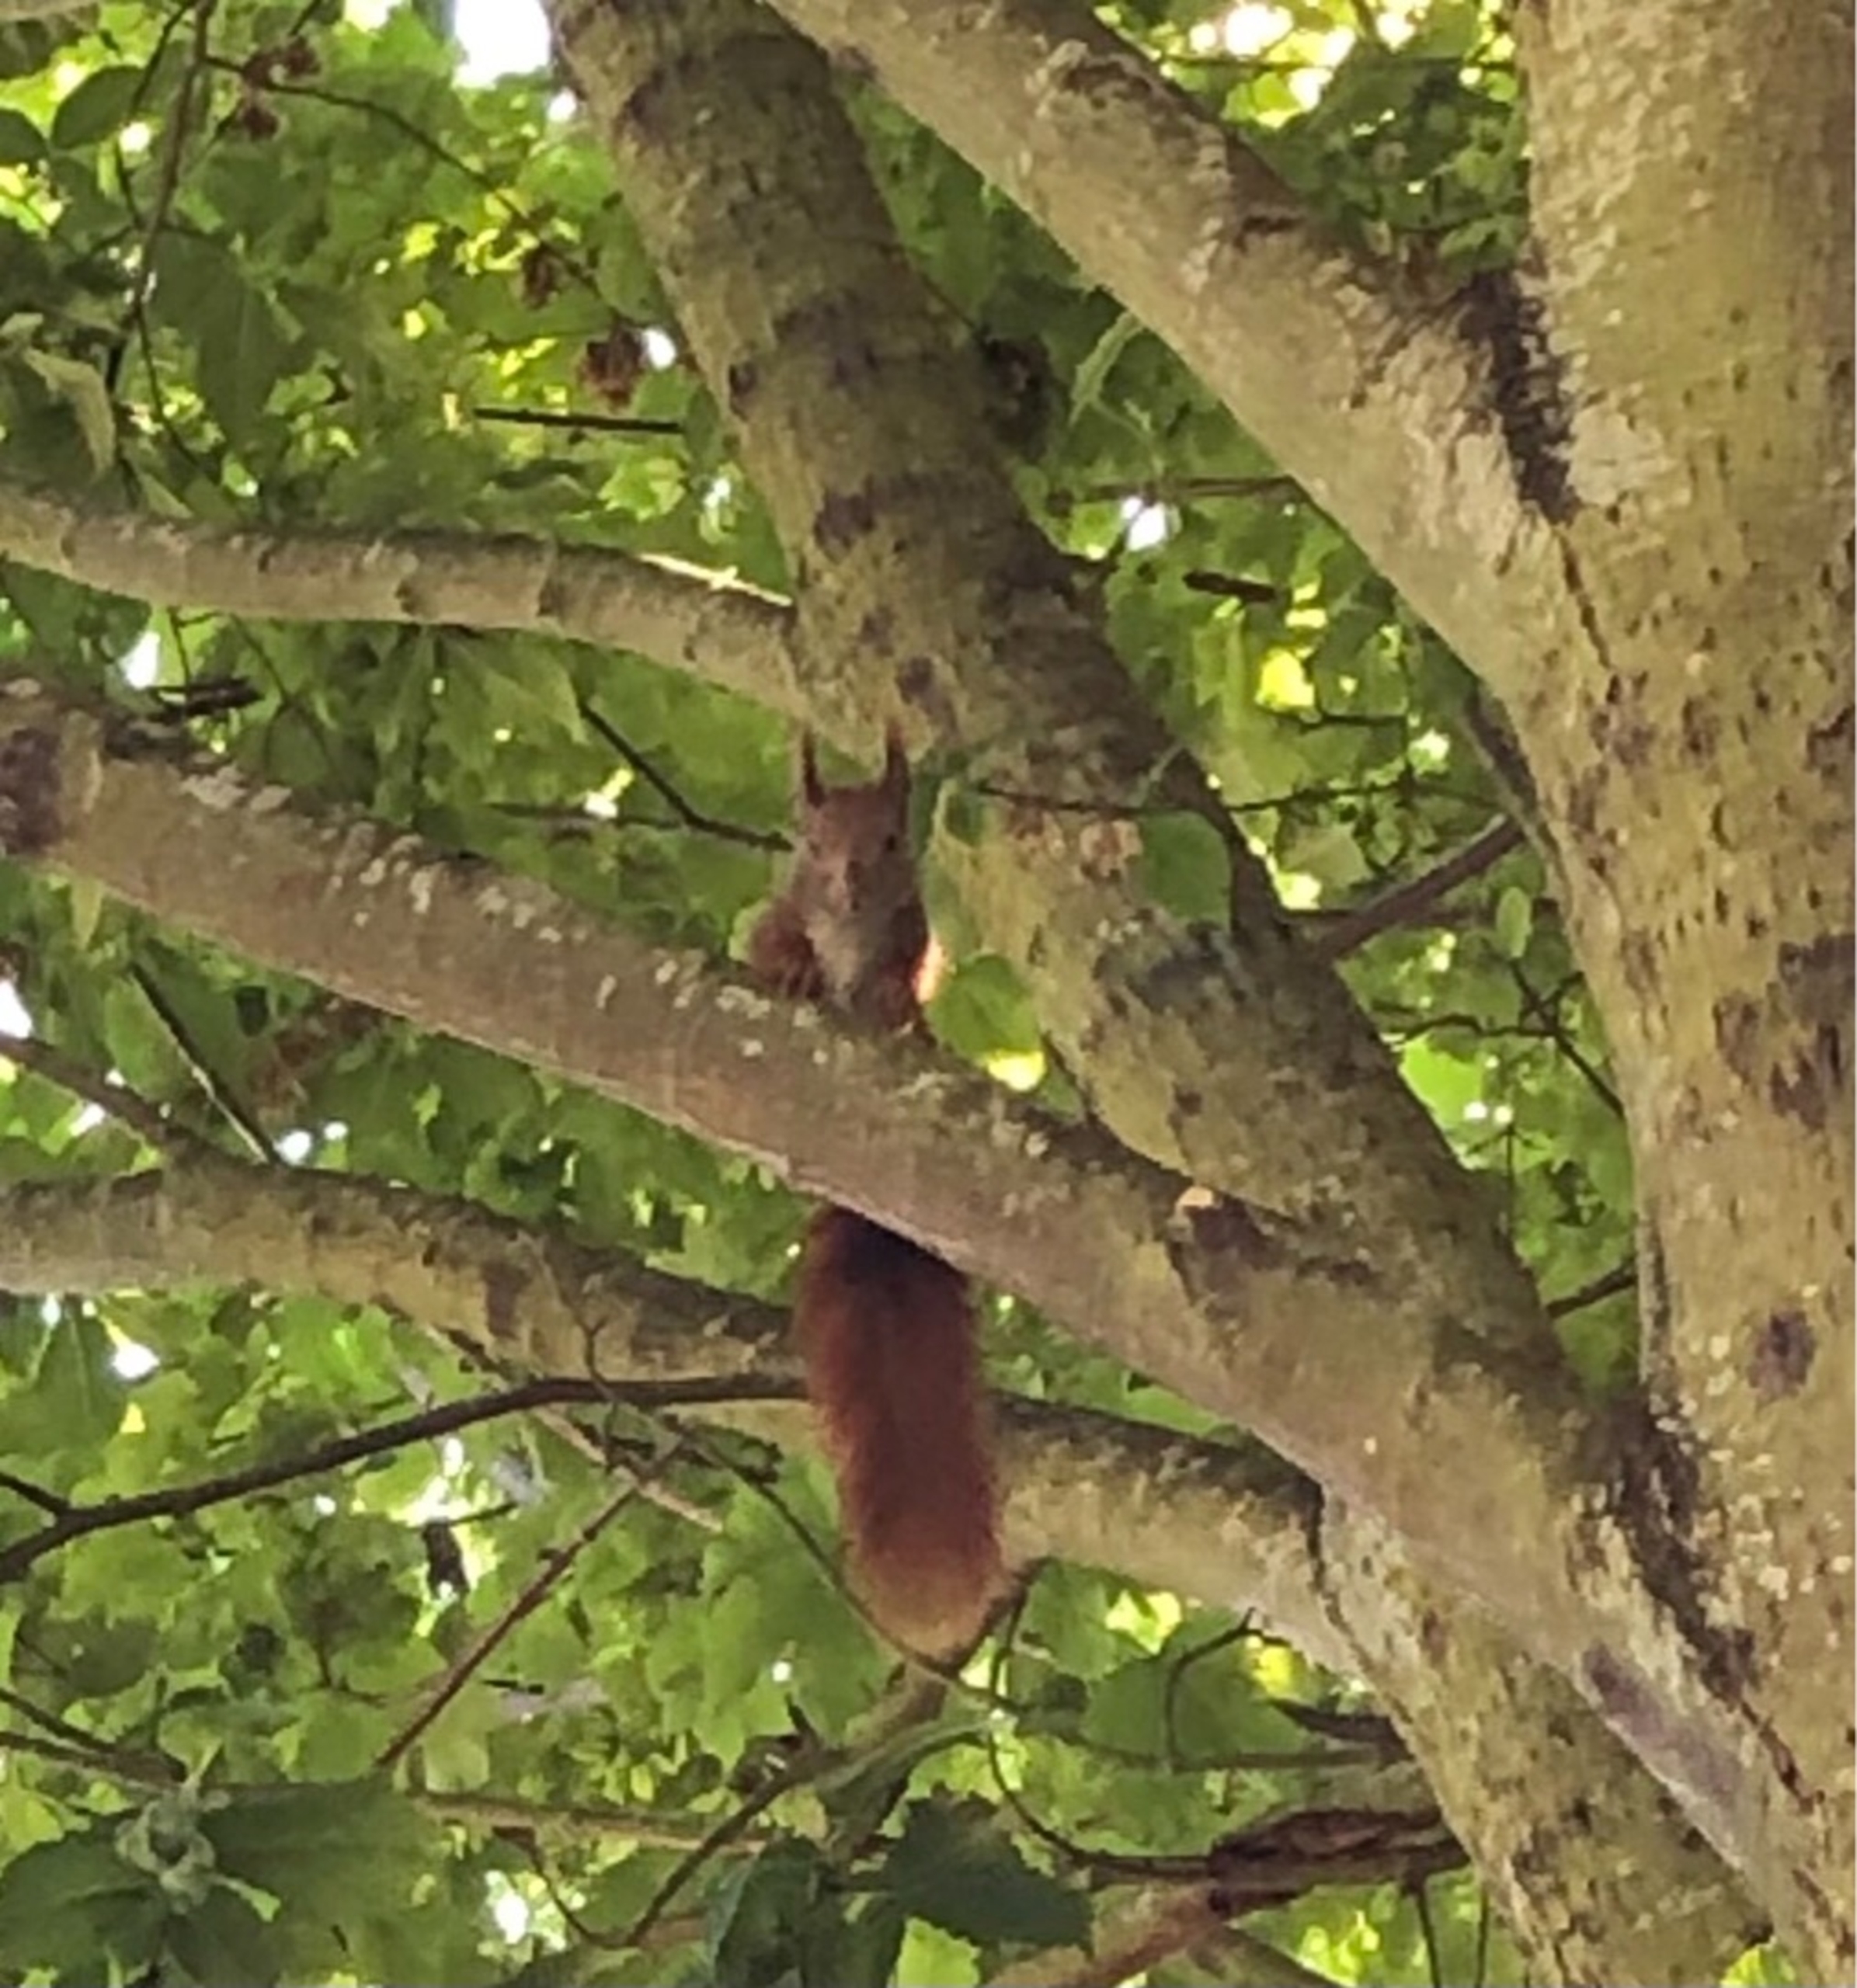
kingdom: Animalia
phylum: Chordata
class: Mammalia
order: Rodentia
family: Sciuridae
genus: Sciurus
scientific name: Sciurus vulgaris
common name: Egern
